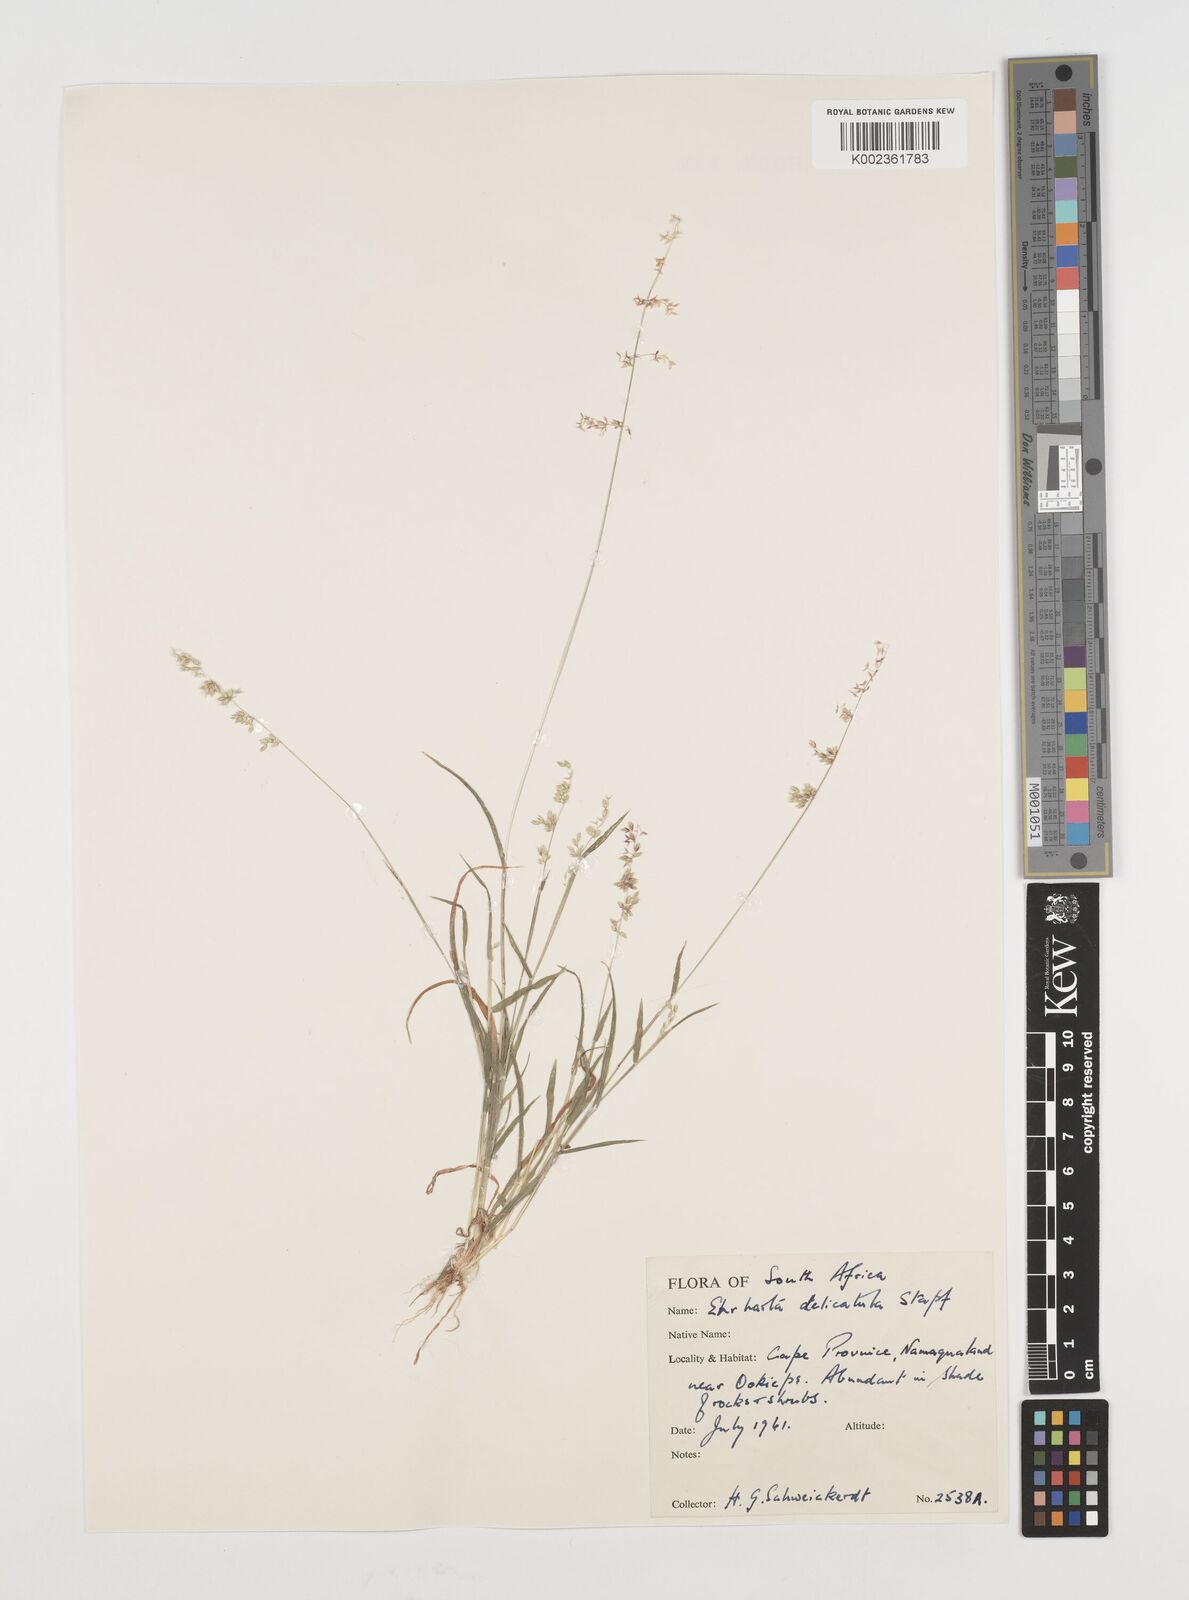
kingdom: Plantae
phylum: Tracheophyta
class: Liliopsida
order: Poales
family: Poaceae
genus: Ehrharta
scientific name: Ehrharta delicatula
